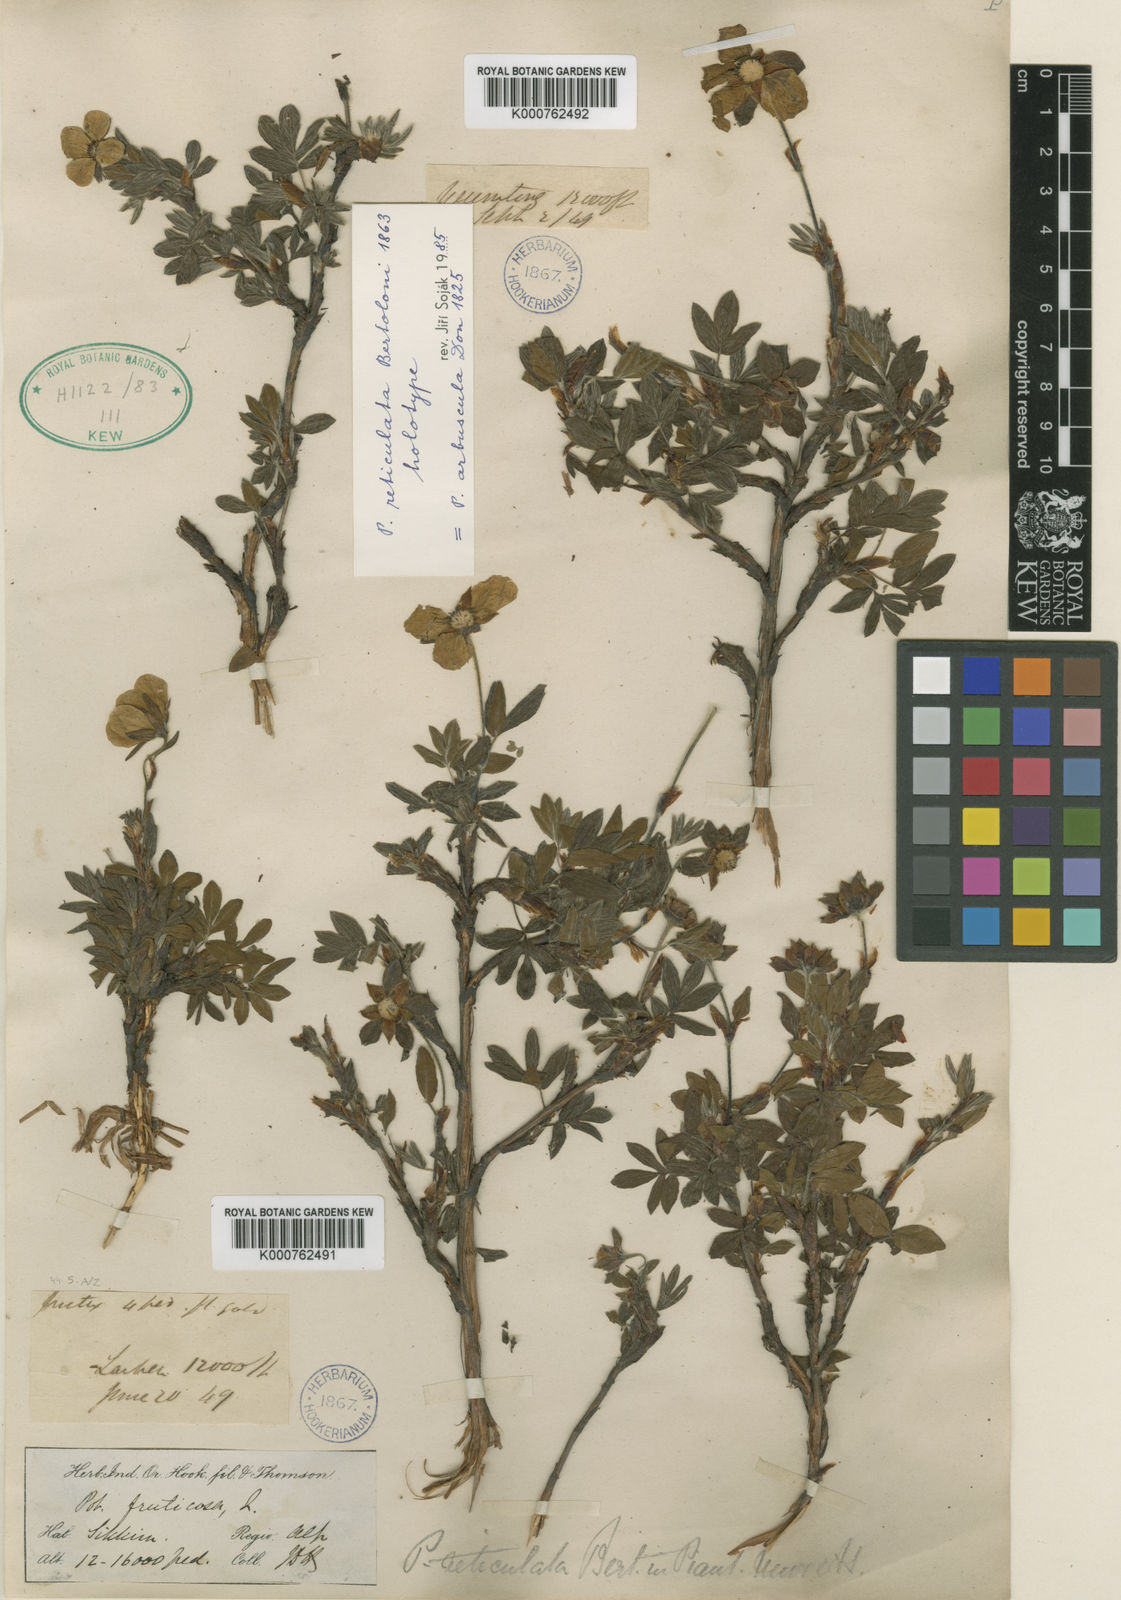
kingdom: Plantae
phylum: Tracheophyta
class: Magnoliopsida
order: Rosales
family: Rosaceae
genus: Dasiphora
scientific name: Dasiphora arbuscula
